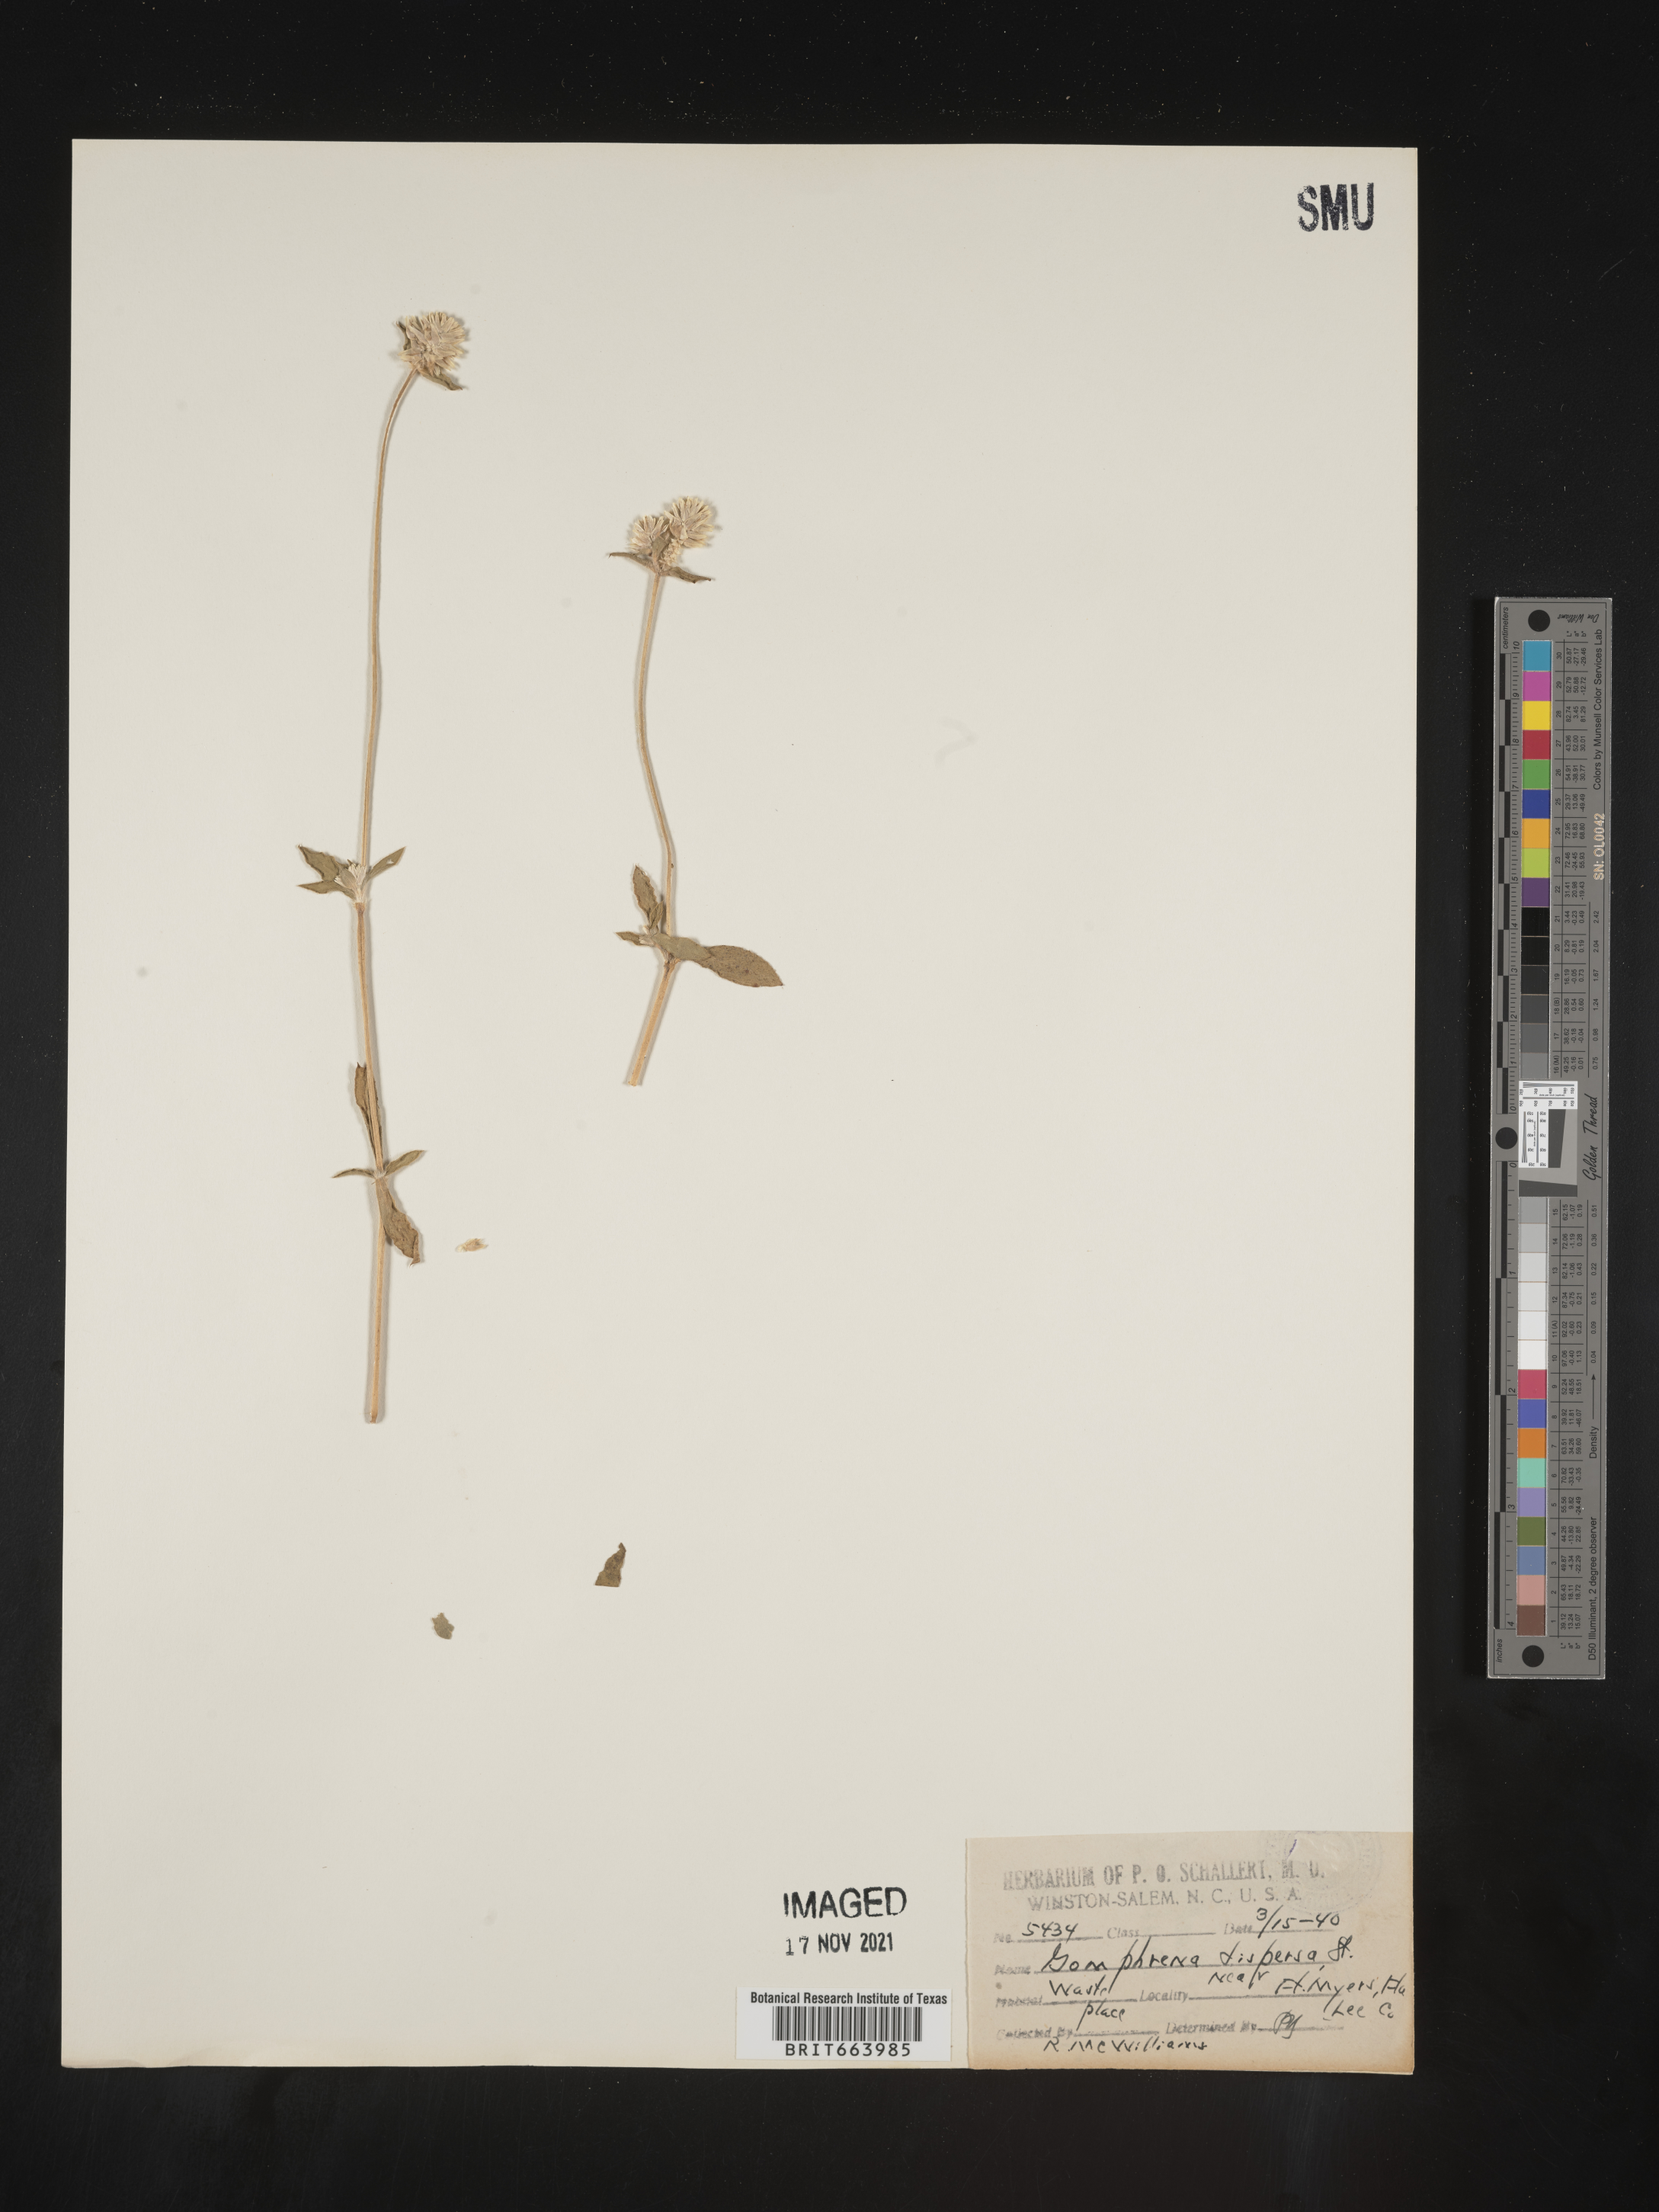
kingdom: Plantae
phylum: Tracheophyta
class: Magnoliopsida
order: Caryophyllales
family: Amaranthaceae
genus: Gomphrena
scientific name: Gomphrena
